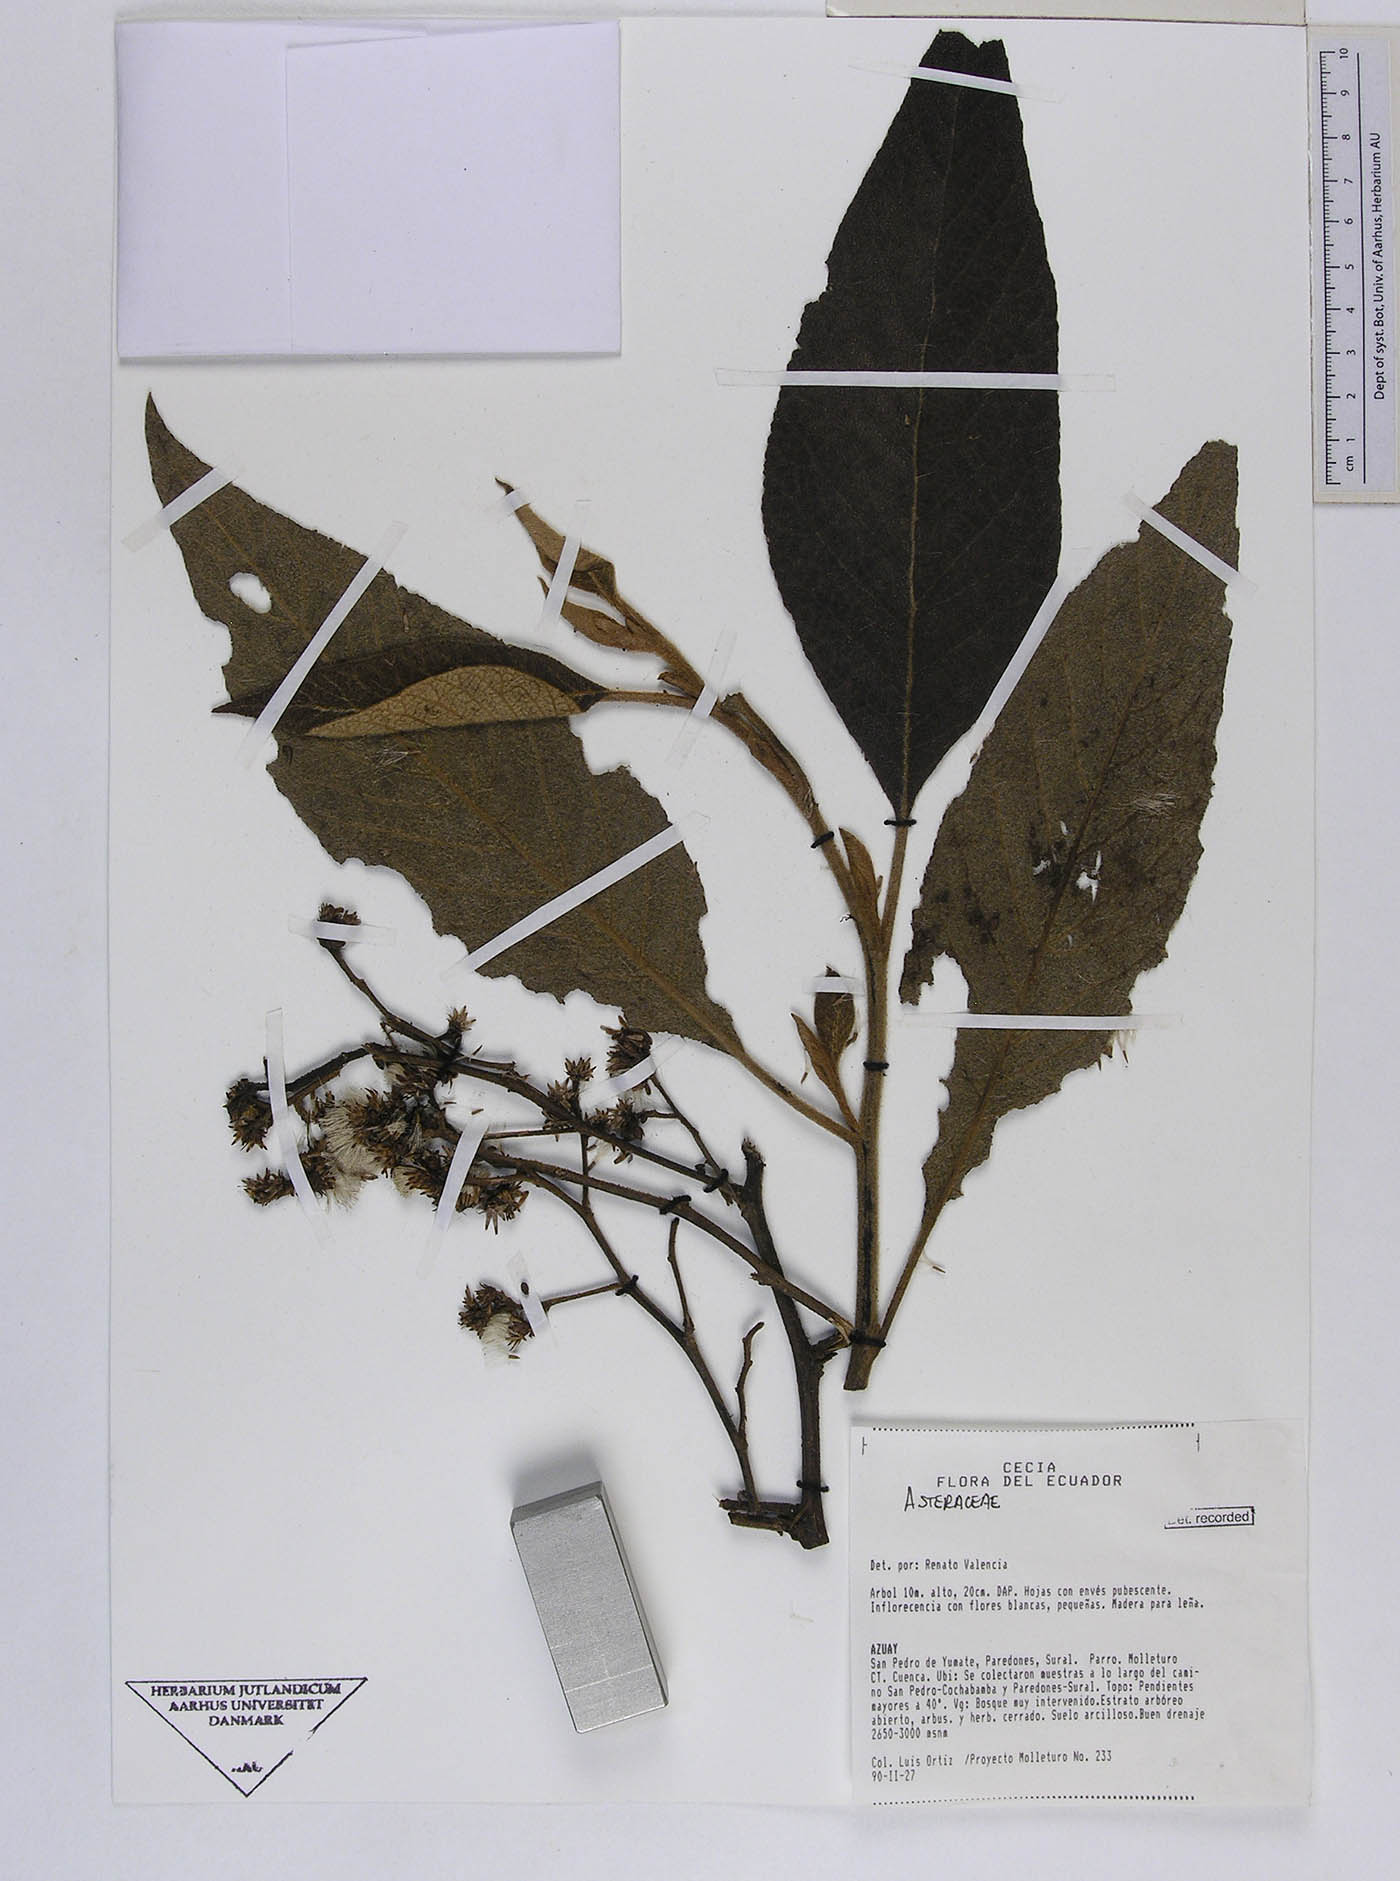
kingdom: Plantae
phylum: Tracheophyta
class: Magnoliopsida
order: Asterales
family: Asteraceae
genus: Critoniopsis
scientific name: Critoniopsis suaveolens
